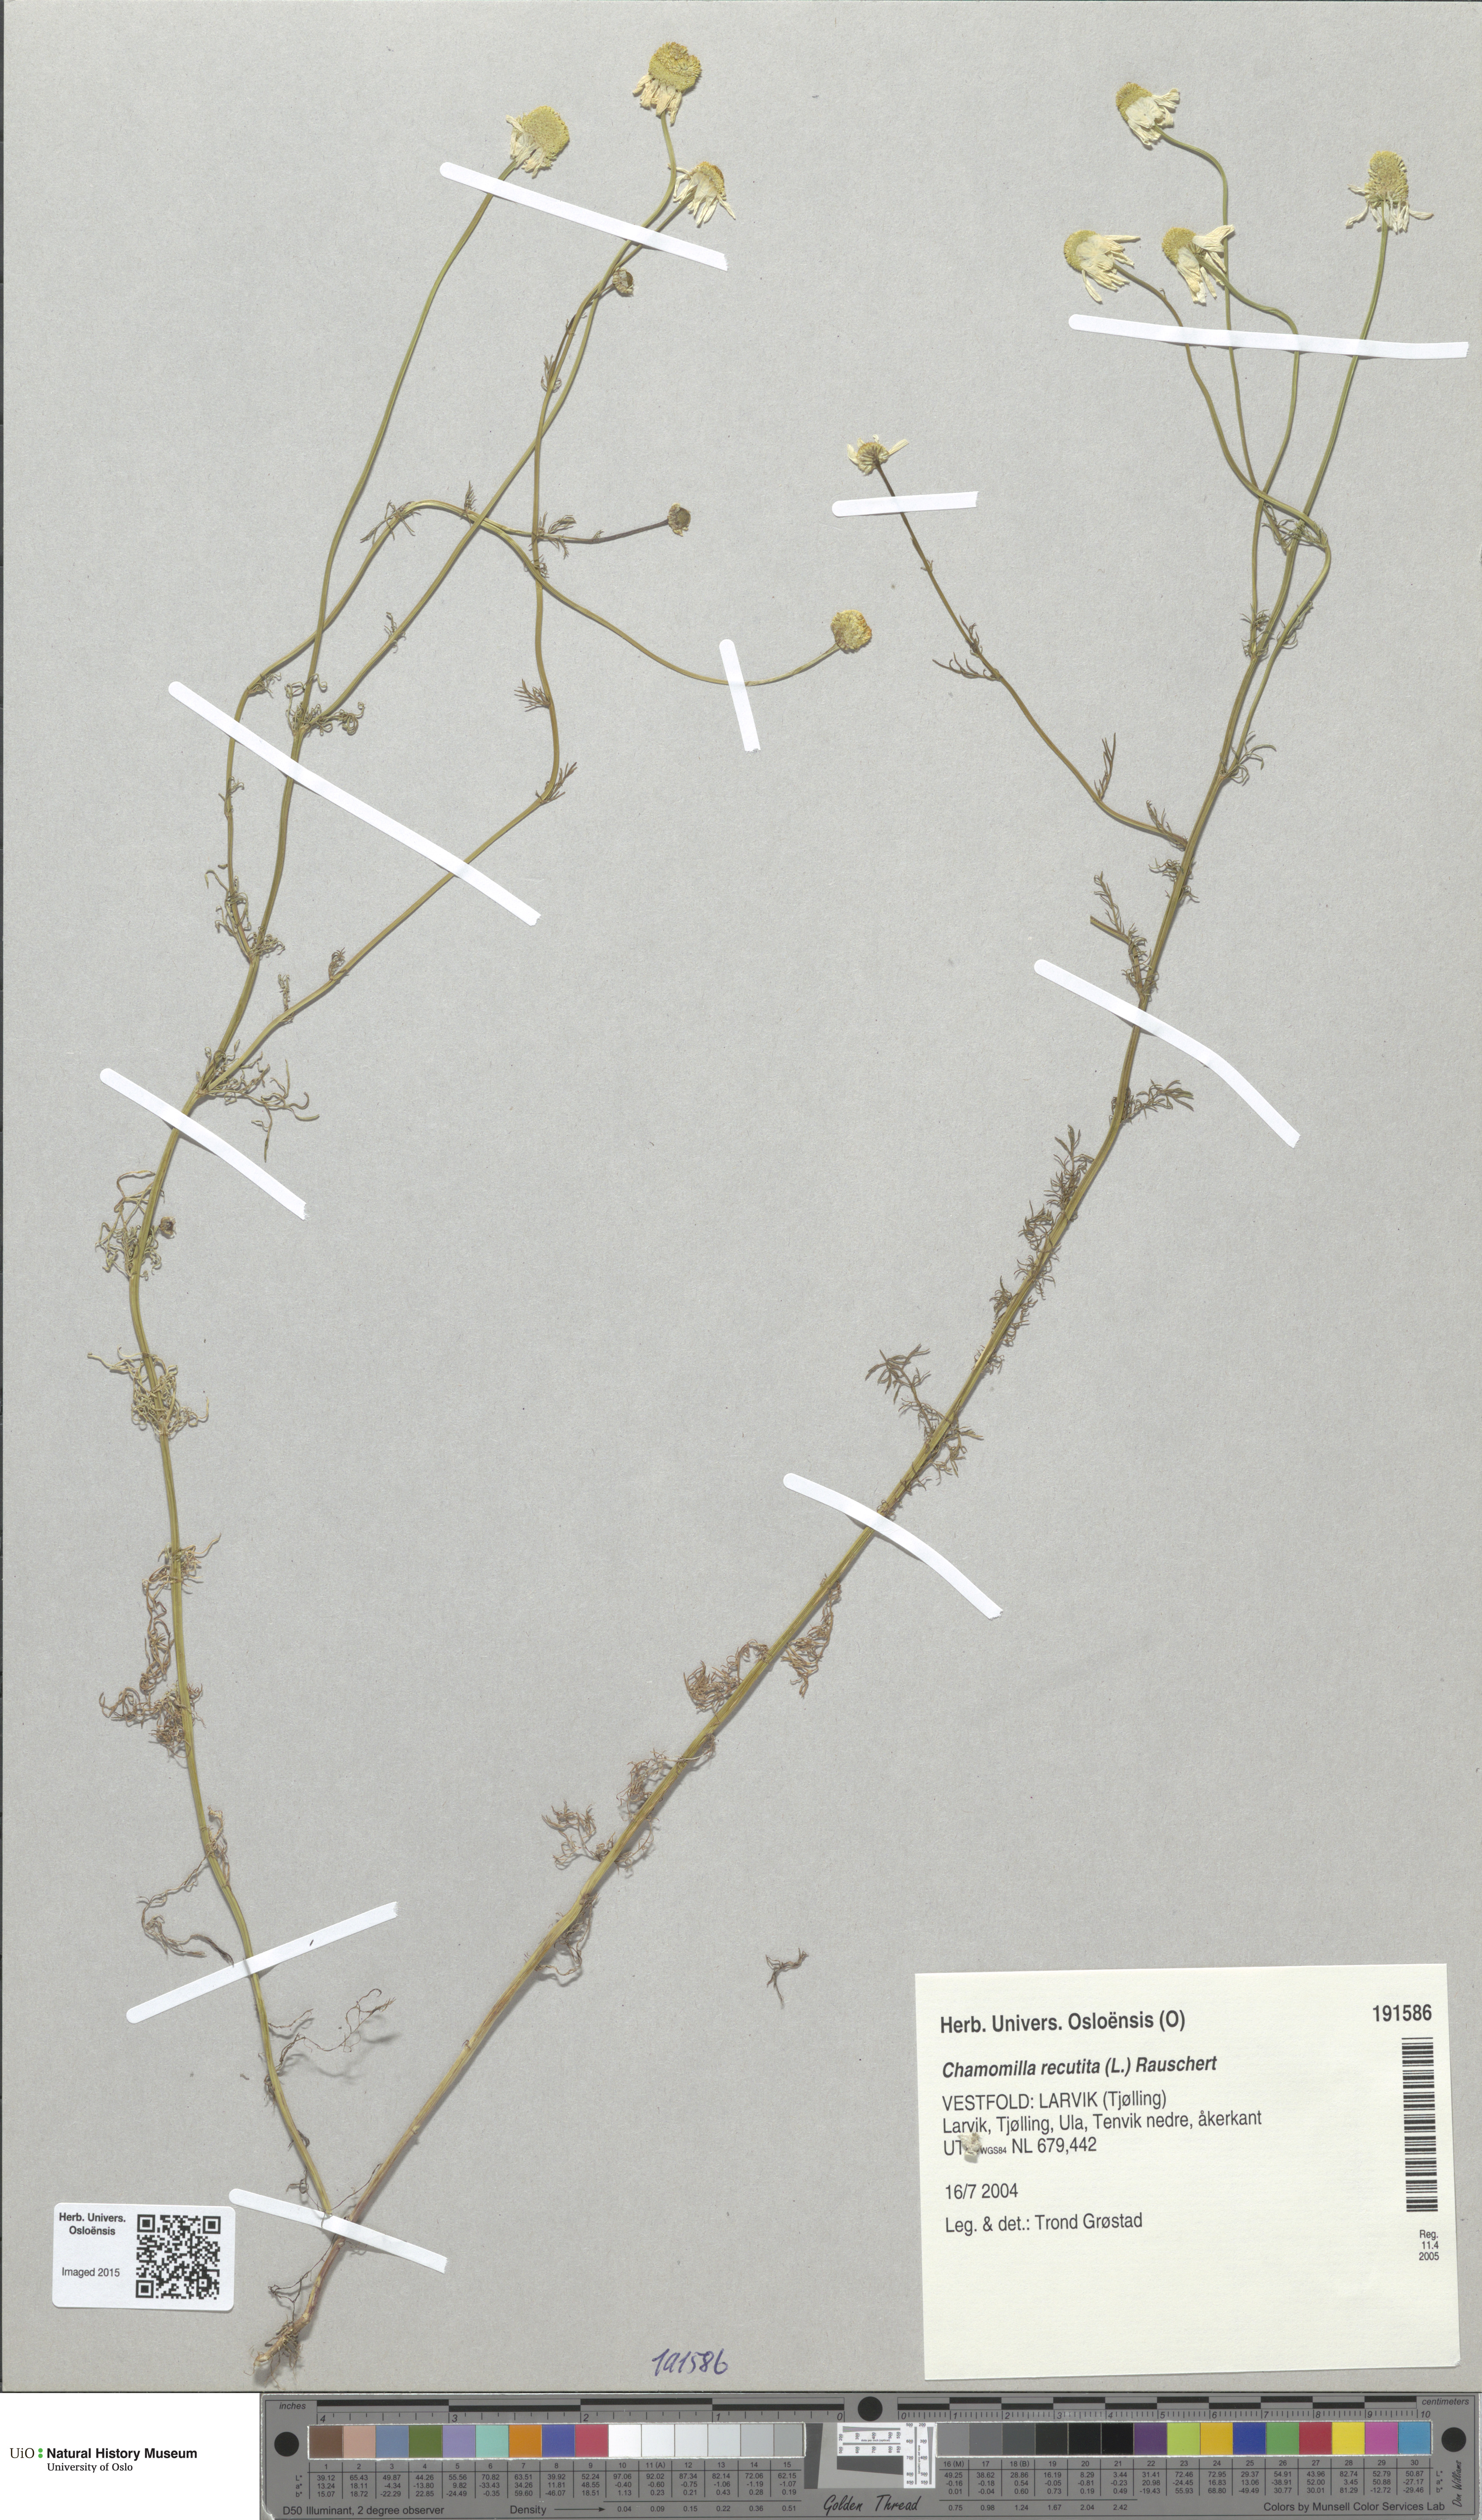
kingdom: Plantae
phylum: Tracheophyta
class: Magnoliopsida
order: Asterales
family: Asteraceae
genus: Matricaria
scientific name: Matricaria chamomilla
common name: Scented mayweed
